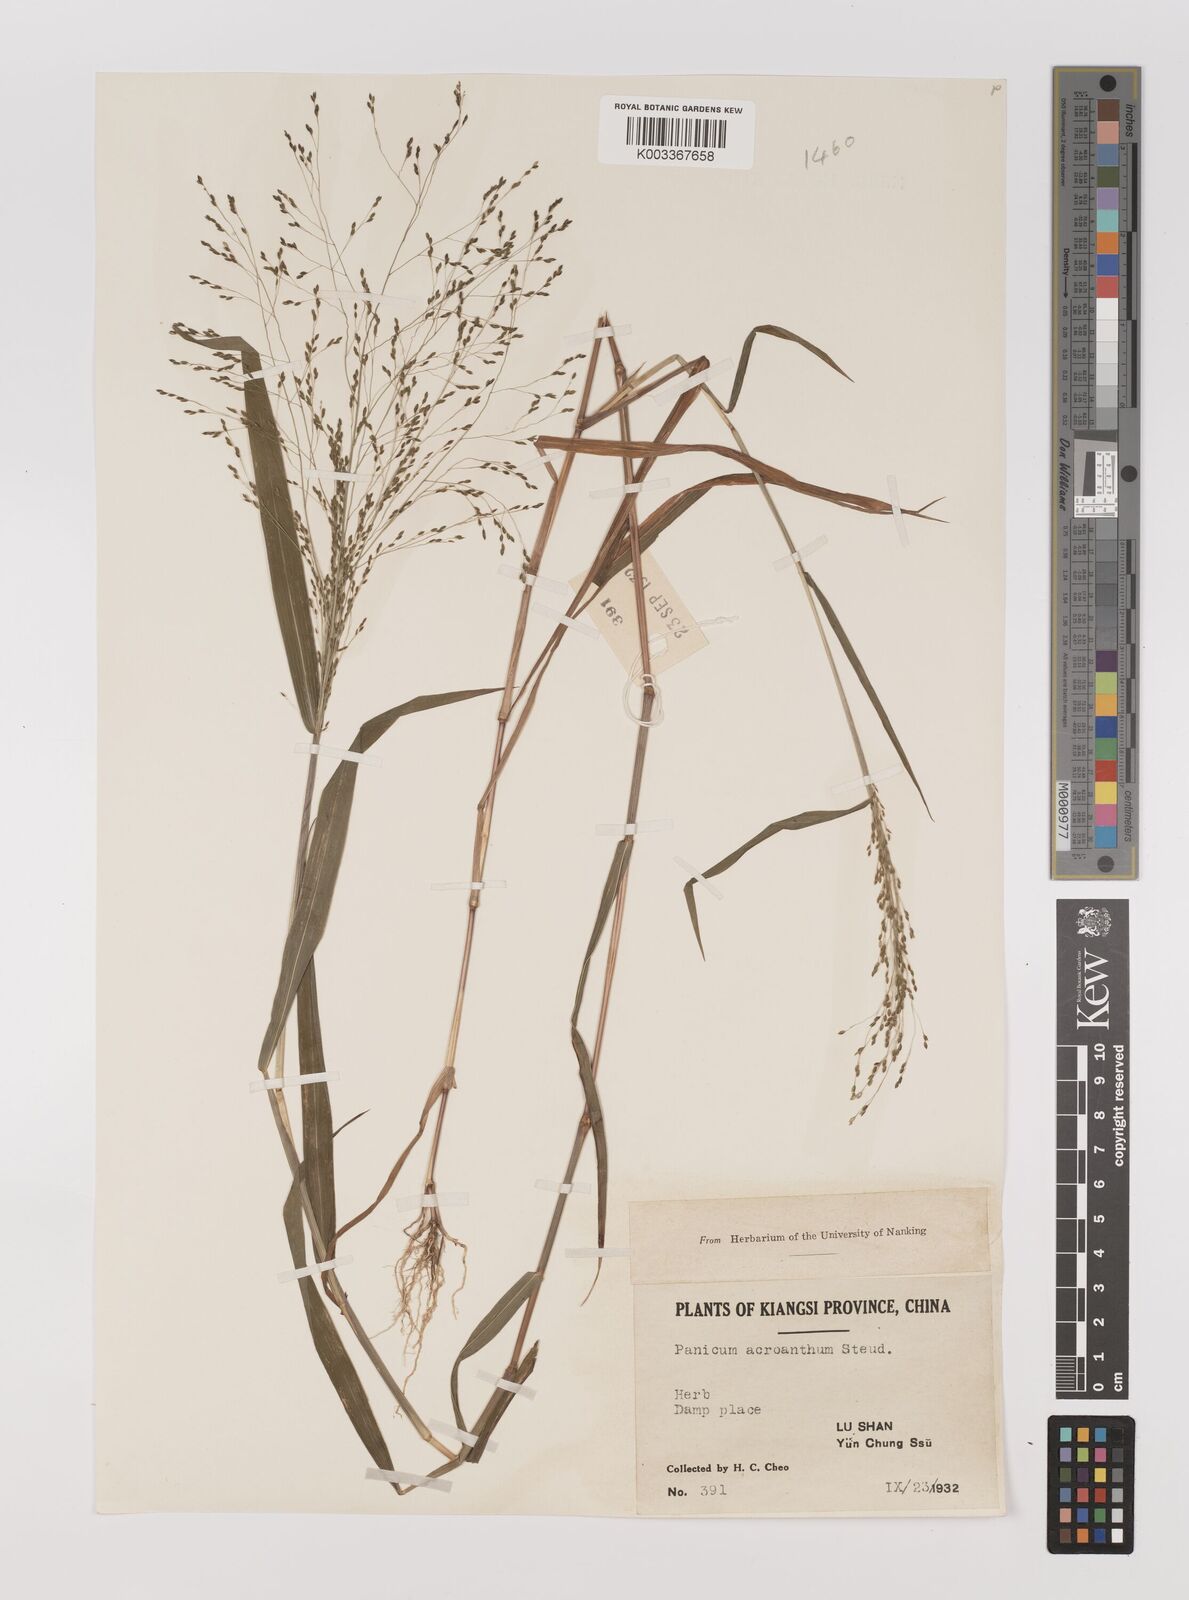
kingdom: Plantae
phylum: Tracheophyta
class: Liliopsida
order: Poales
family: Poaceae
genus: Panicum
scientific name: Panicum bisulcatum
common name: Japanese panicgrass
